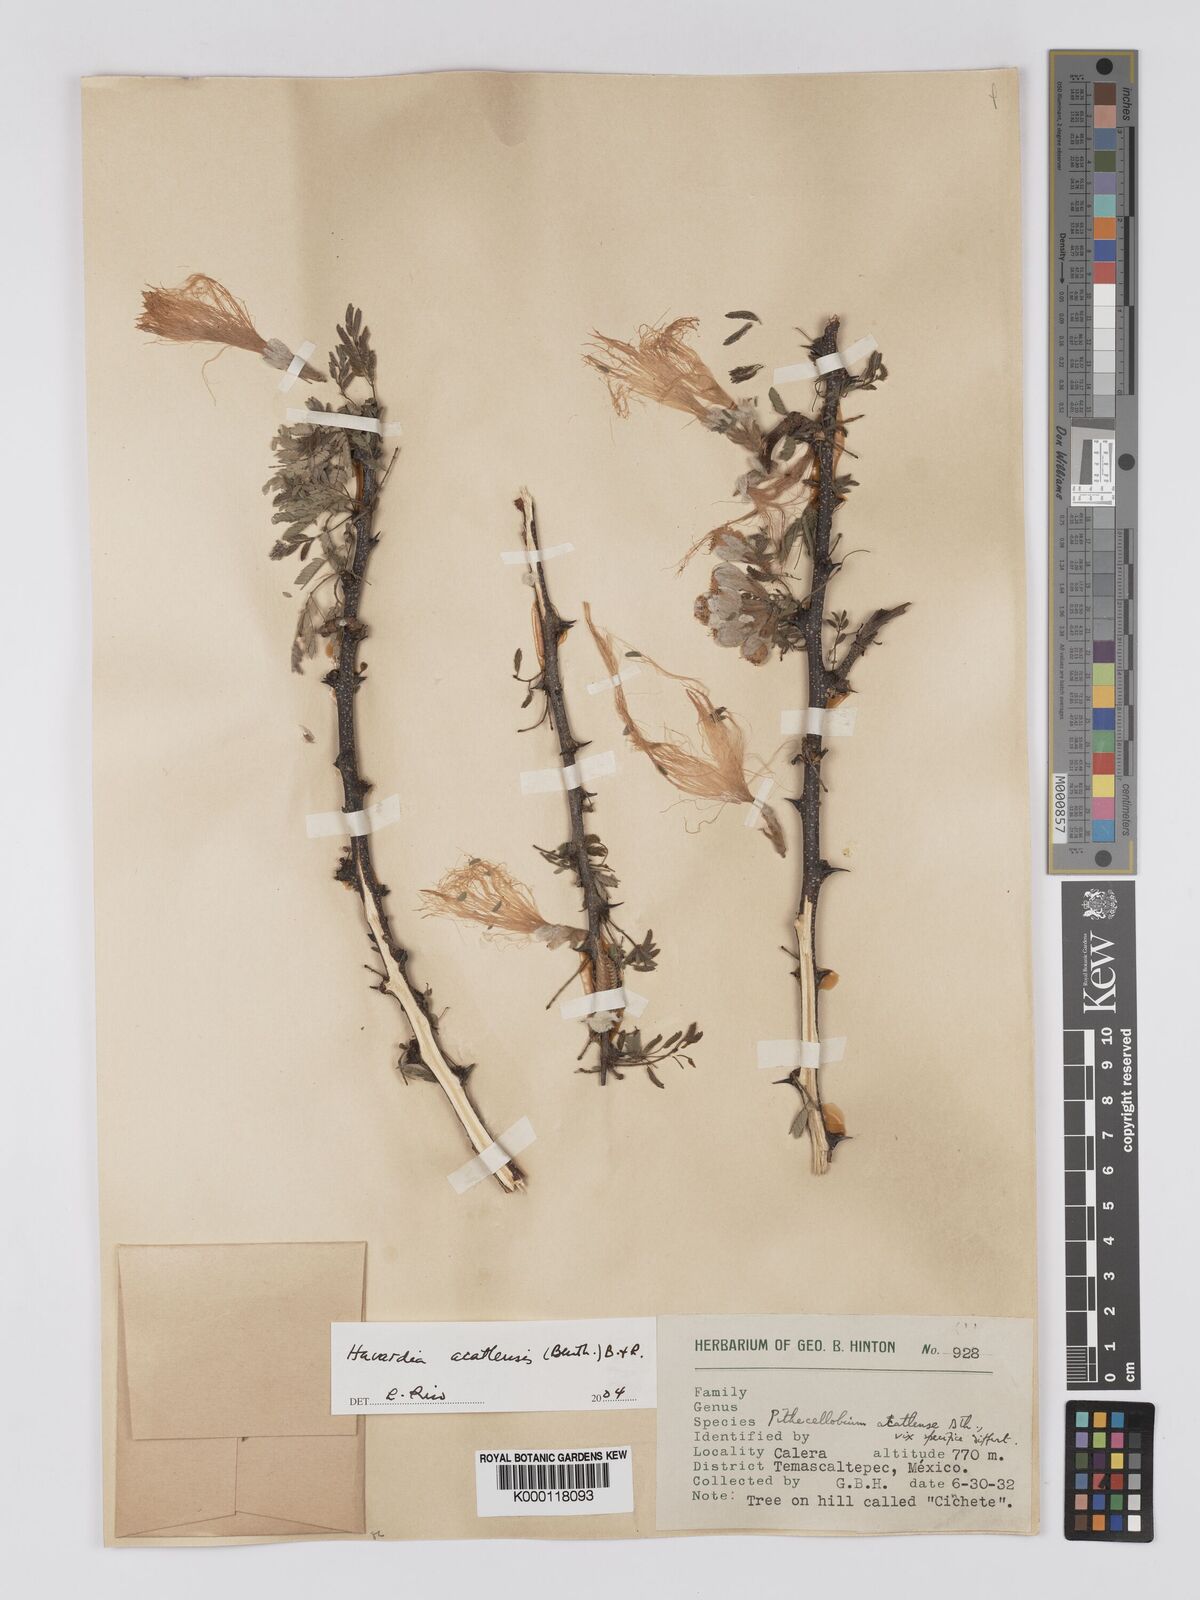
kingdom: Plantae
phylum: Tracheophyta
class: Magnoliopsida
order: Fabales
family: Fabaceae
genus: Havardia
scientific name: Havardia acatlensis
